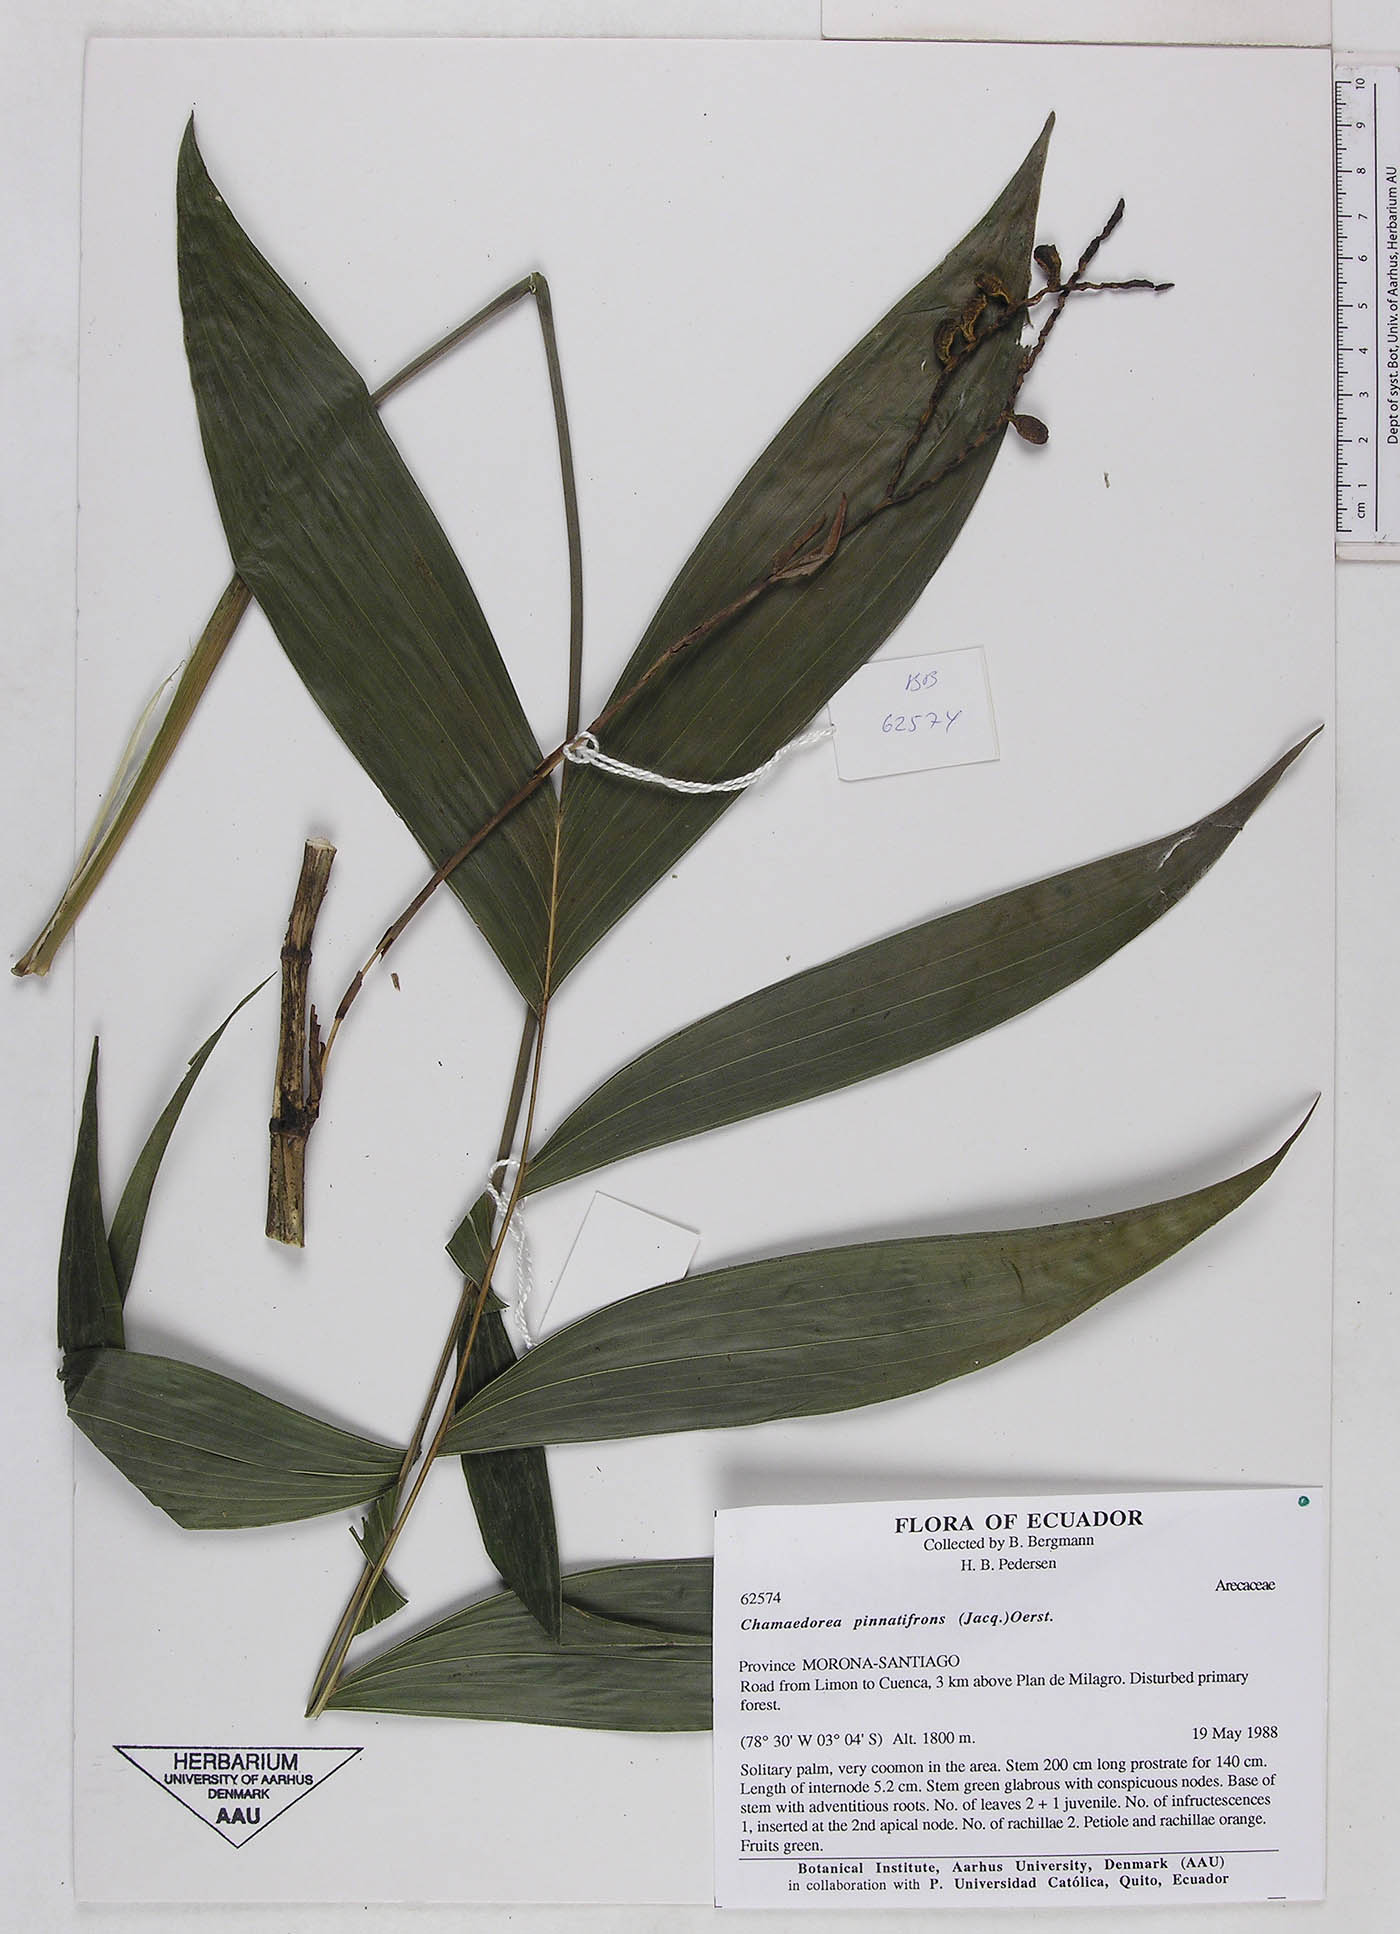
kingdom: Plantae
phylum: Tracheophyta
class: Liliopsida
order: Arecales
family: Arecaceae
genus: Chamaedorea
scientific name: Chamaedorea pinnatifrons
